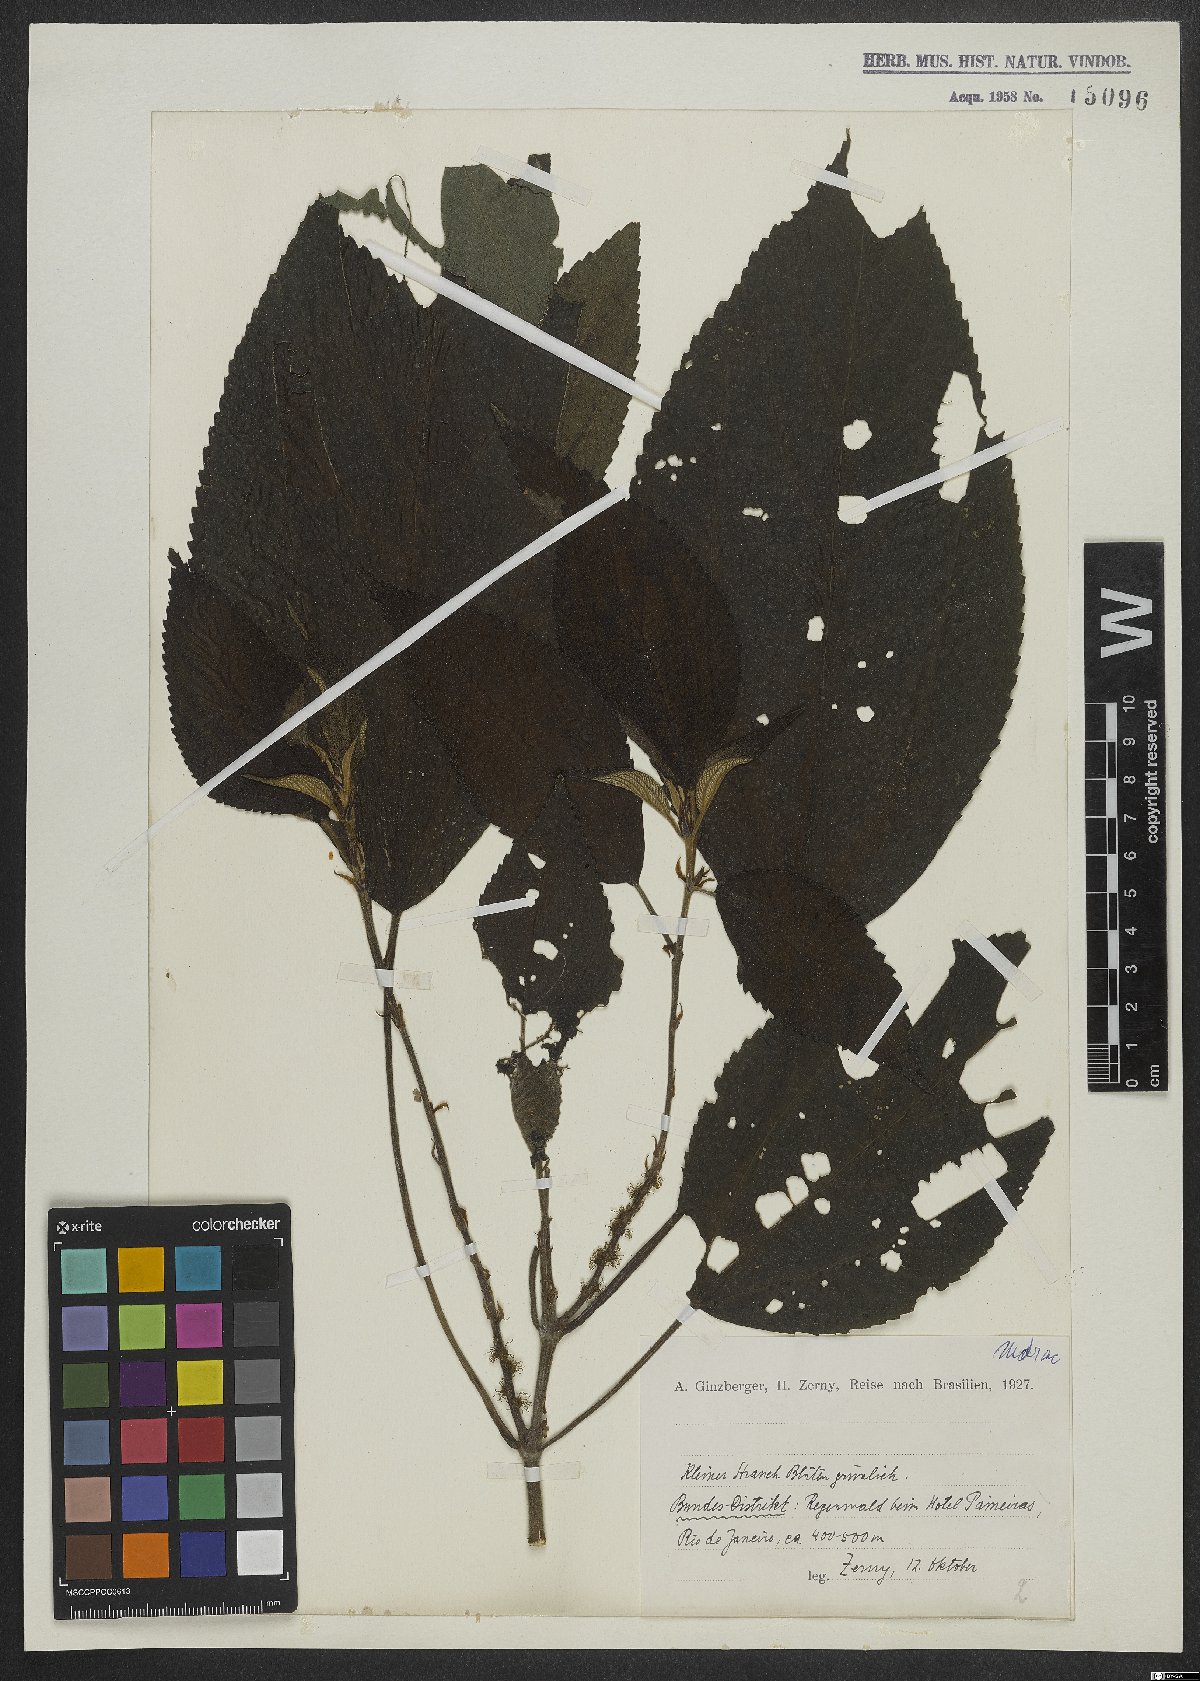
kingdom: Plantae
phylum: Tracheophyta
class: Magnoliopsida
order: Rosales
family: Moraceae
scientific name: Moraceae
